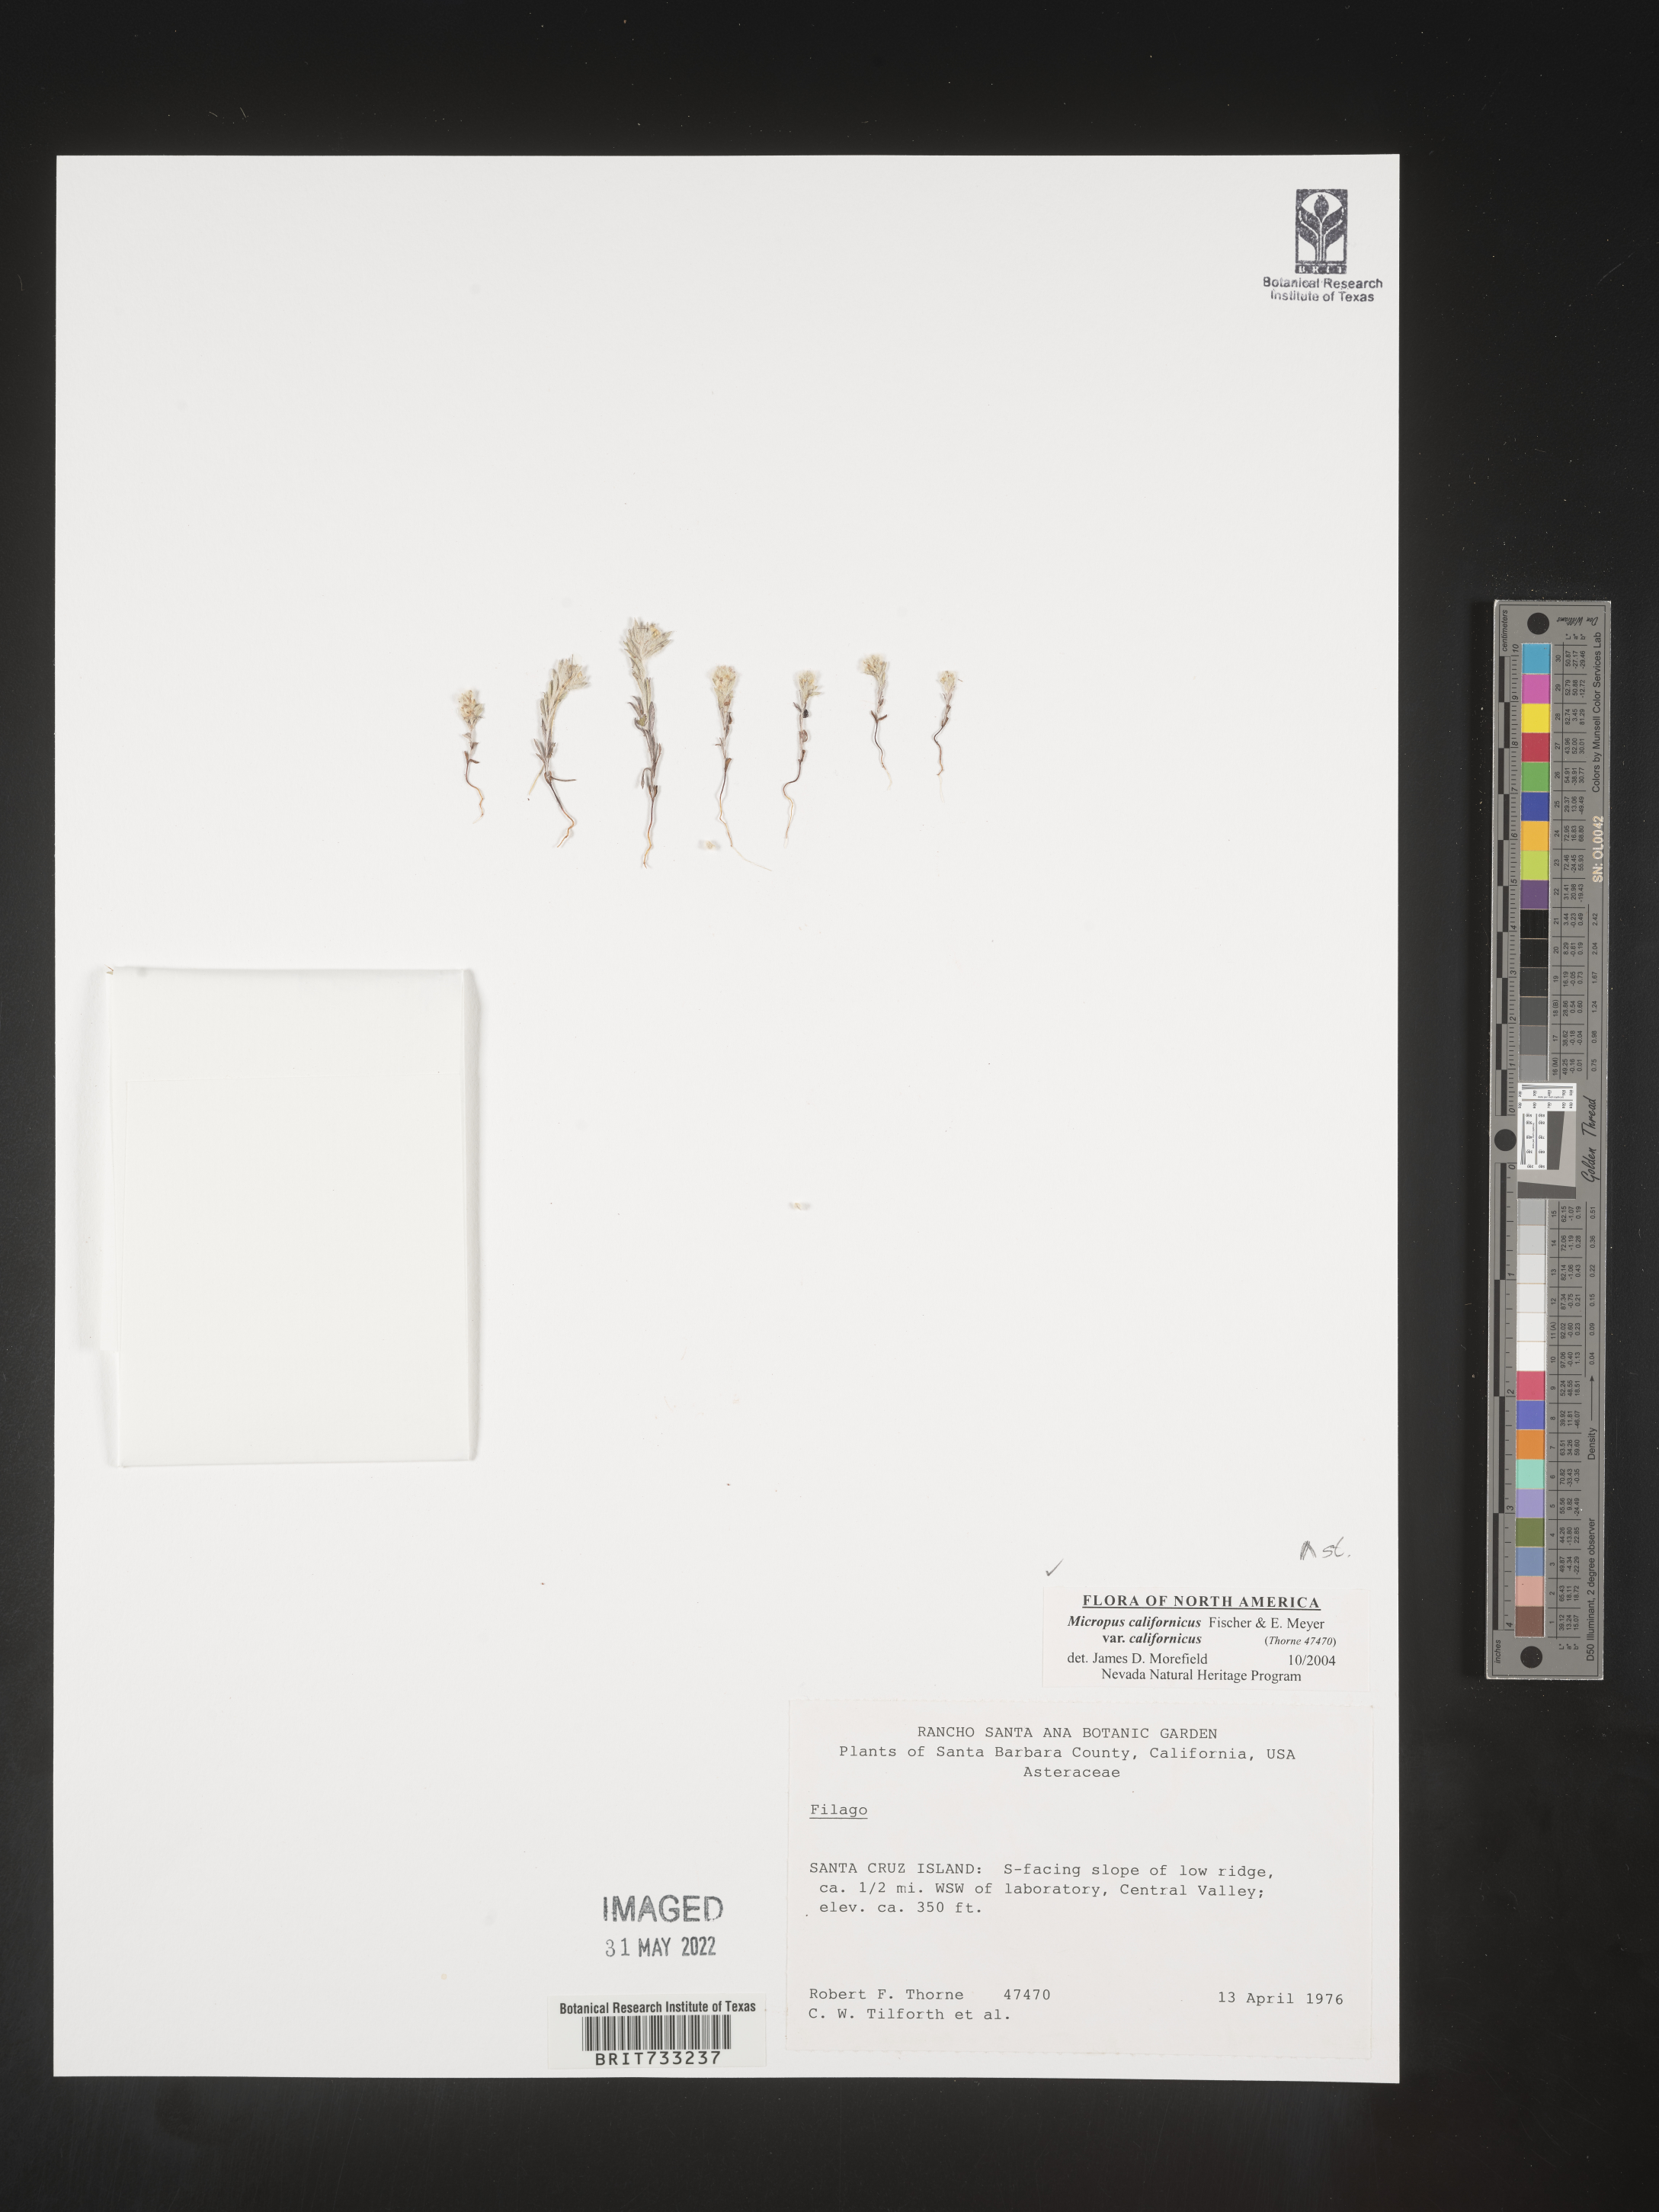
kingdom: Plantae
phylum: Tracheophyta
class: Magnoliopsida
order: Asterales
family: Asteraceae
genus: Micropus
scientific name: Micropus
